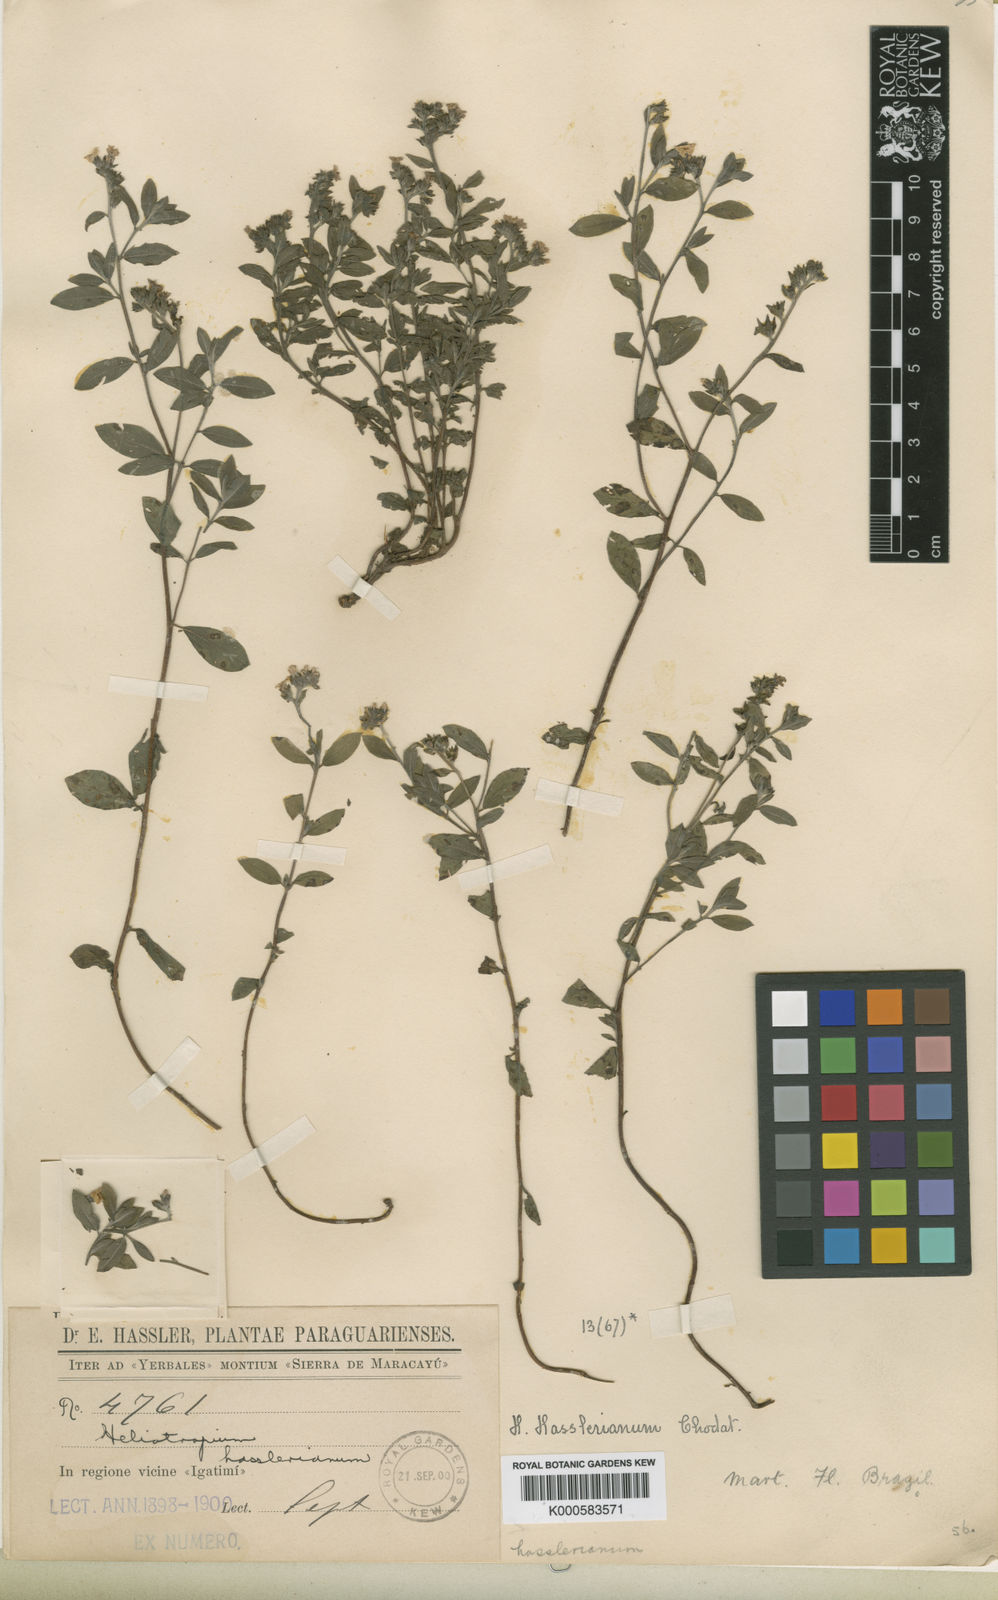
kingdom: Plantae
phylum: Tracheophyta
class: Magnoliopsida
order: Boraginales
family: Heliotropiaceae
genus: Euploca
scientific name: Euploca hassleriana
